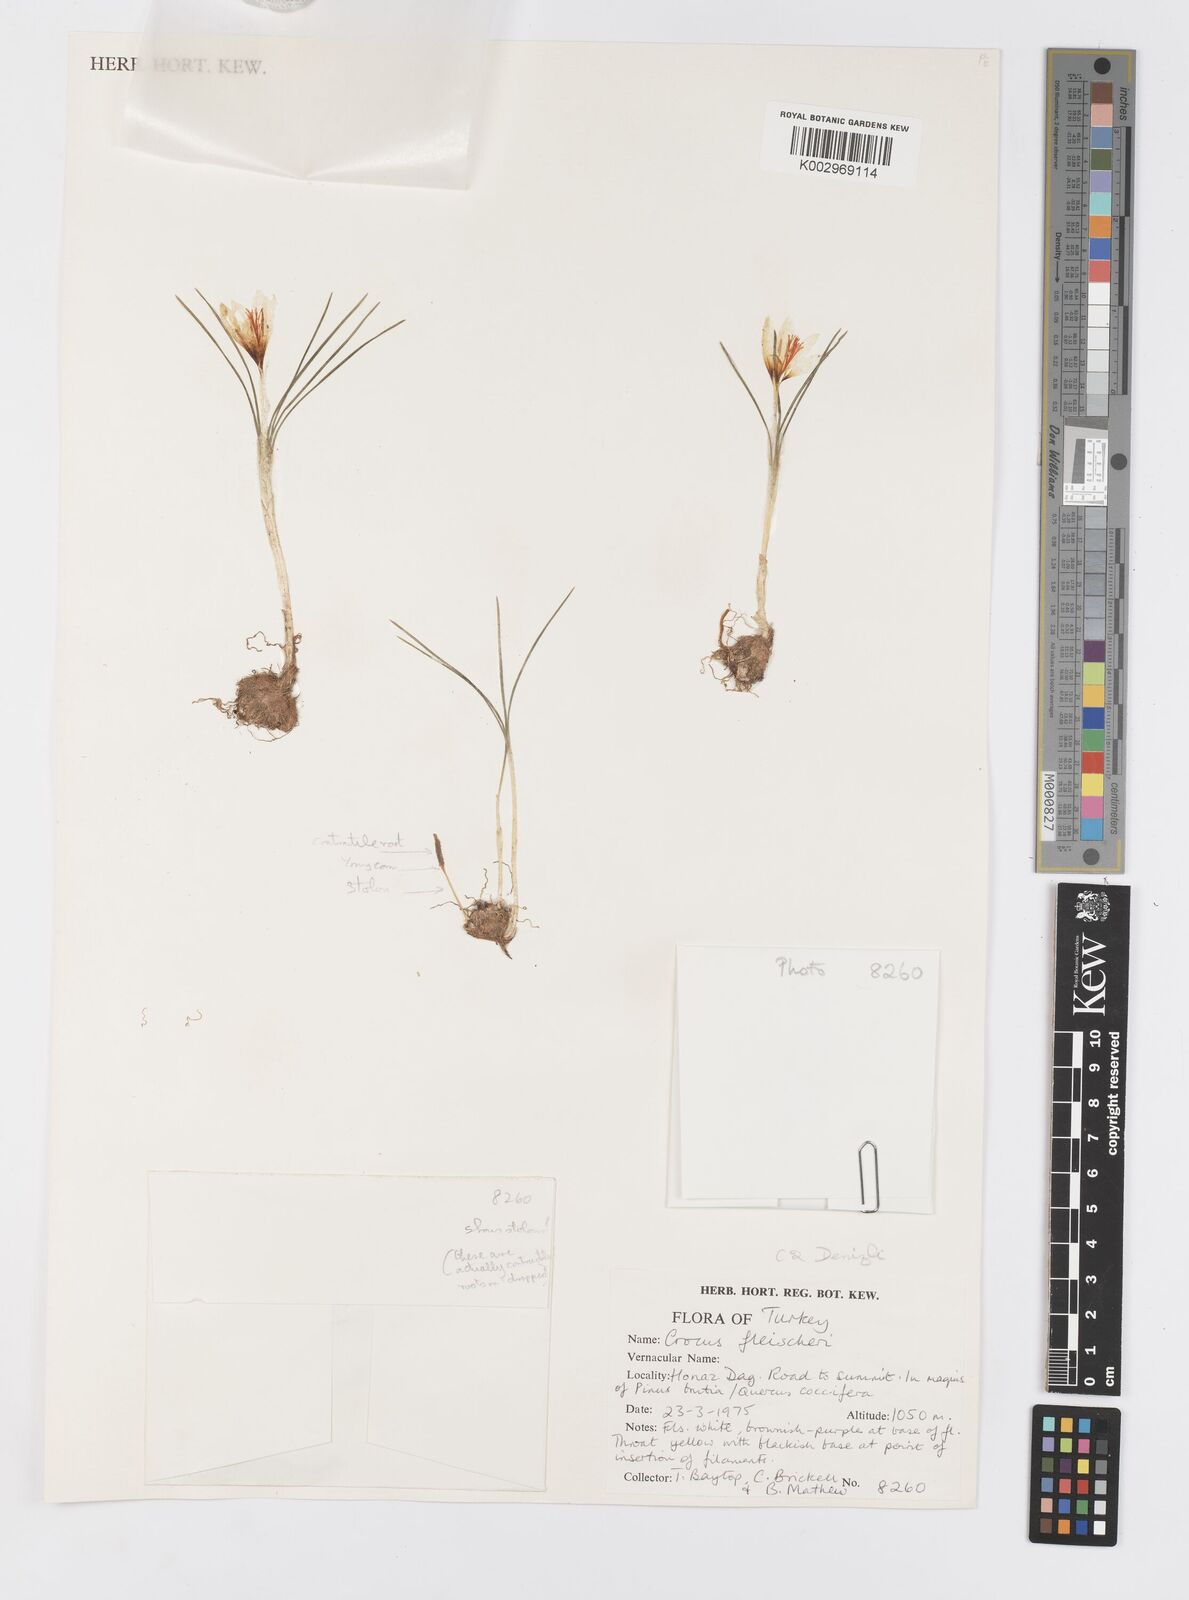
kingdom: Plantae
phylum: Tracheophyta
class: Liliopsida
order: Asparagales
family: Iridaceae
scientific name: Iridaceae
